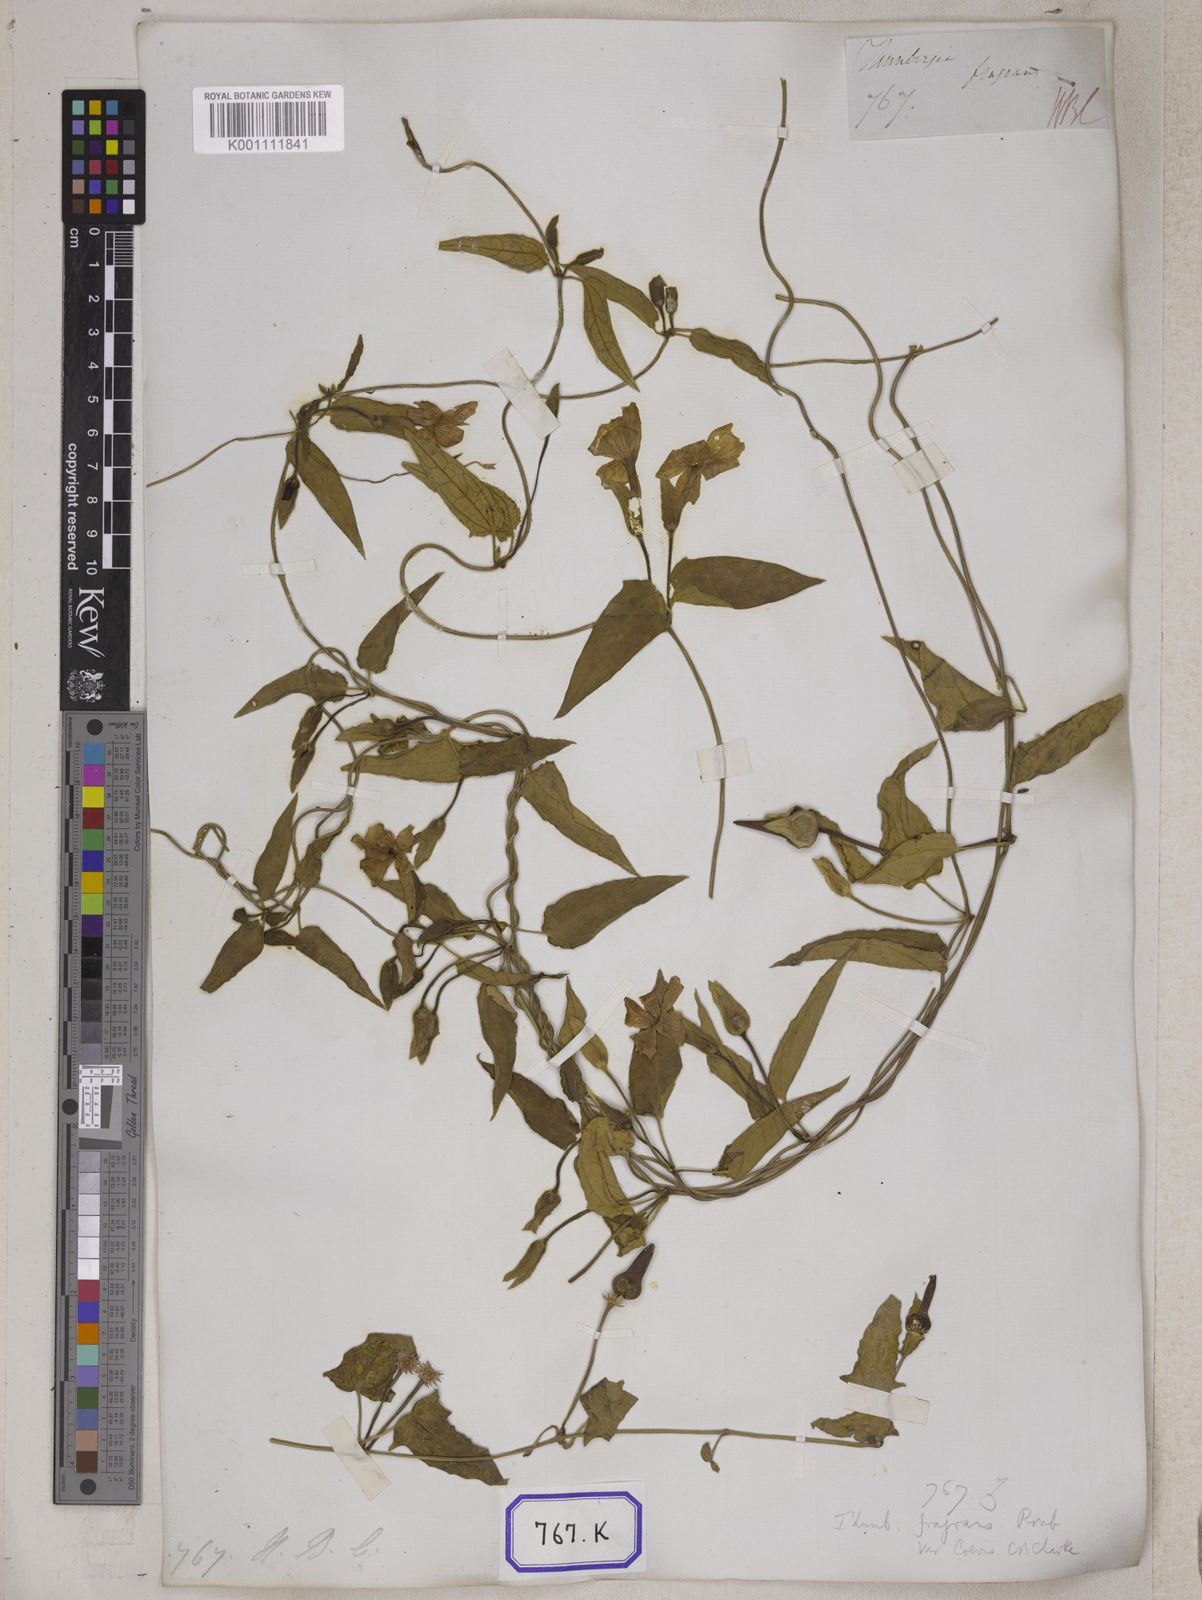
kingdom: Plantae
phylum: Tracheophyta
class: Magnoliopsida
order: Lamiales
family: Acanthaceae
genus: Thunbergia
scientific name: Thunbergia fragrans
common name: Whitelady
